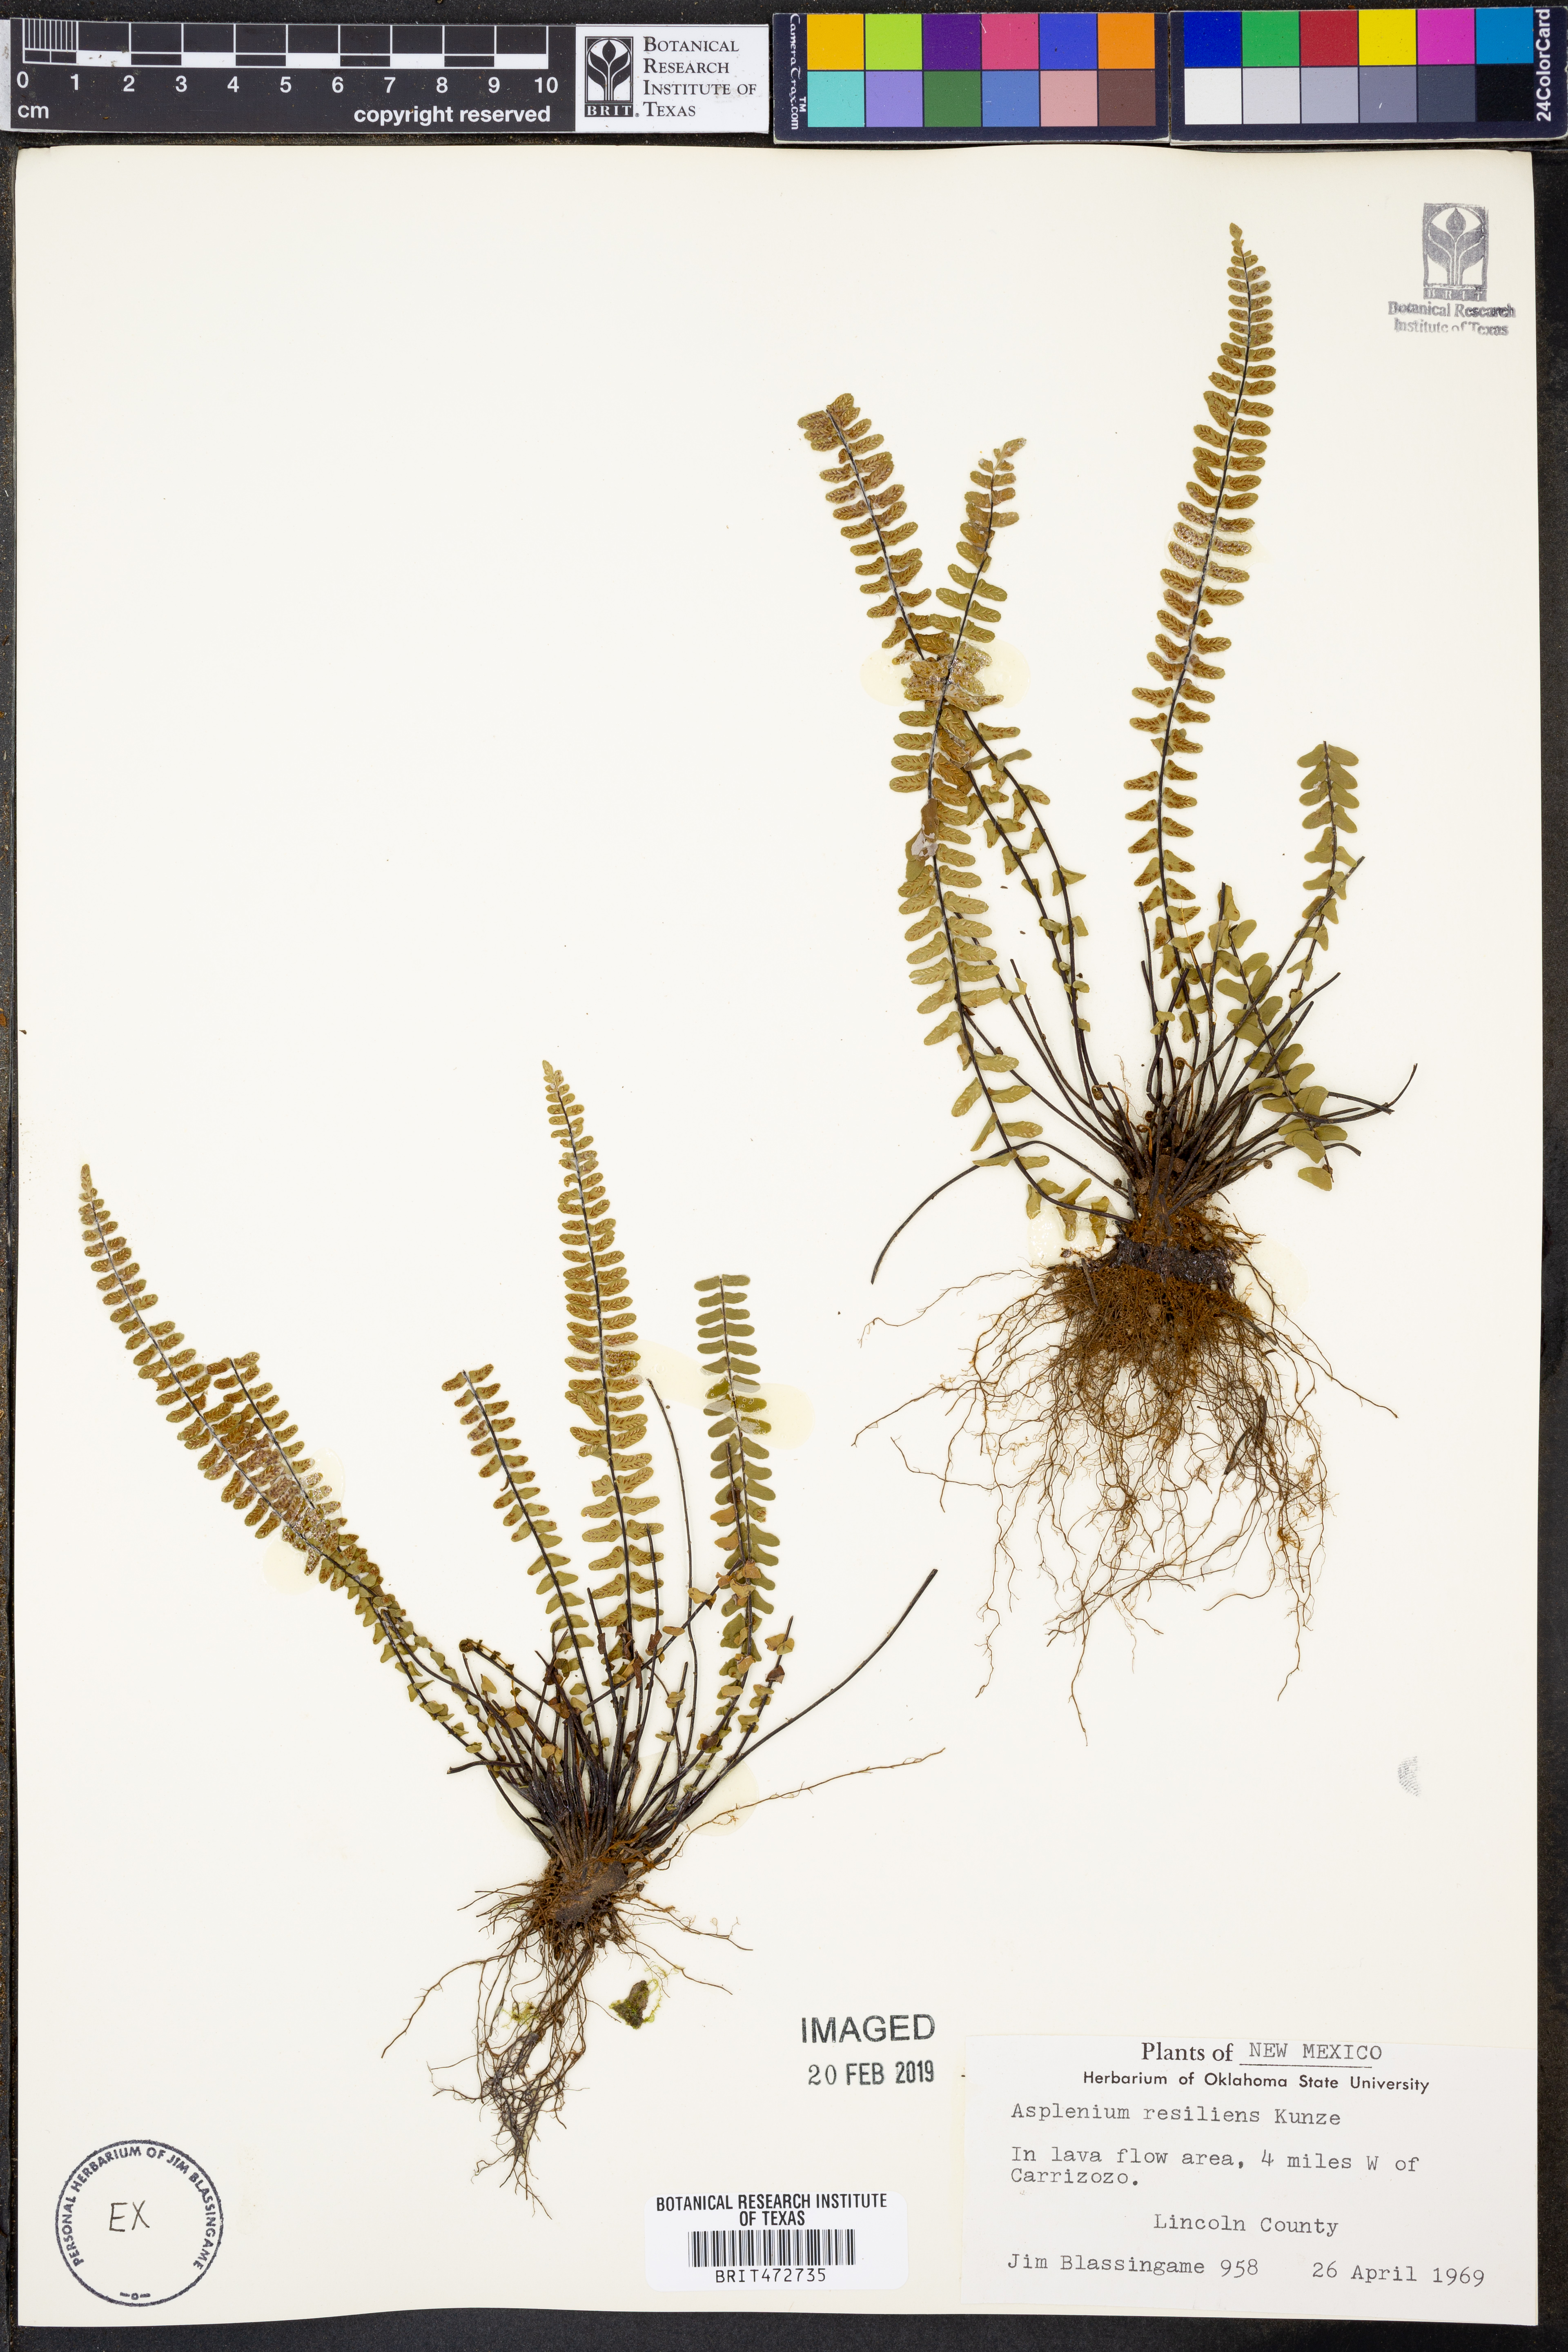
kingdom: Plantae
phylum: Tracheophyta
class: Polypodiopsida
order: Polypodiales
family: Aspleniaceae
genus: Asplenium
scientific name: Asplenium resiliens
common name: Blackstem spleenwort
